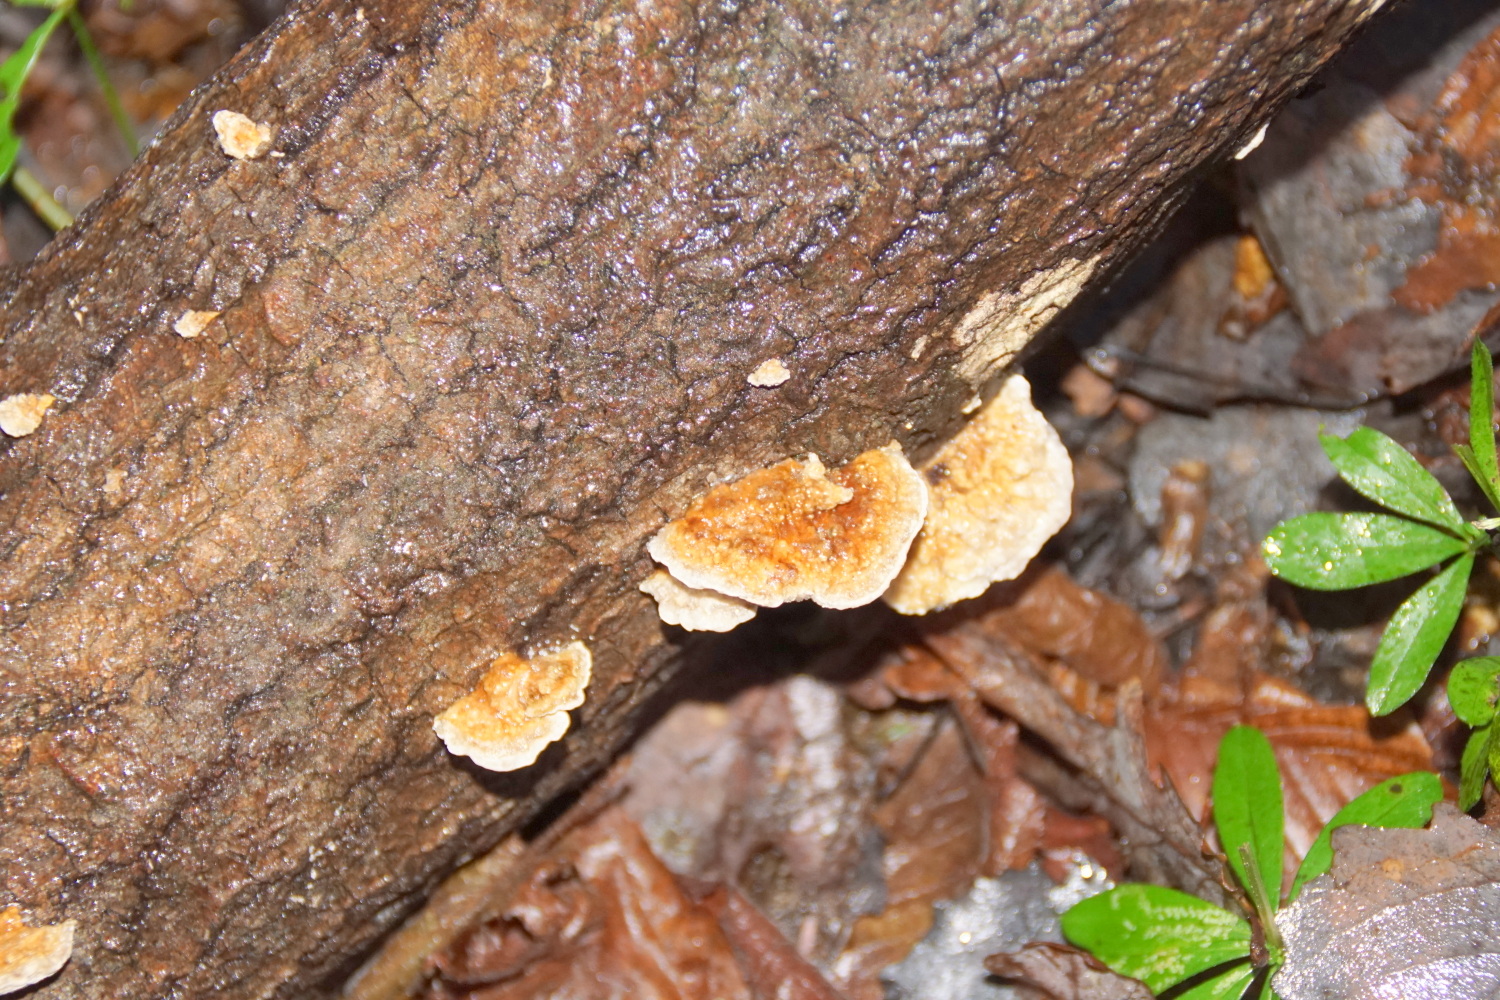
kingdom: Fungi
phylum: Basidiomycota
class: Agaricomycetes
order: Polyporales
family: Polyporaceae
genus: Trametes
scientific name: Trametes ochracea
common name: bæltet læderporesvamp
